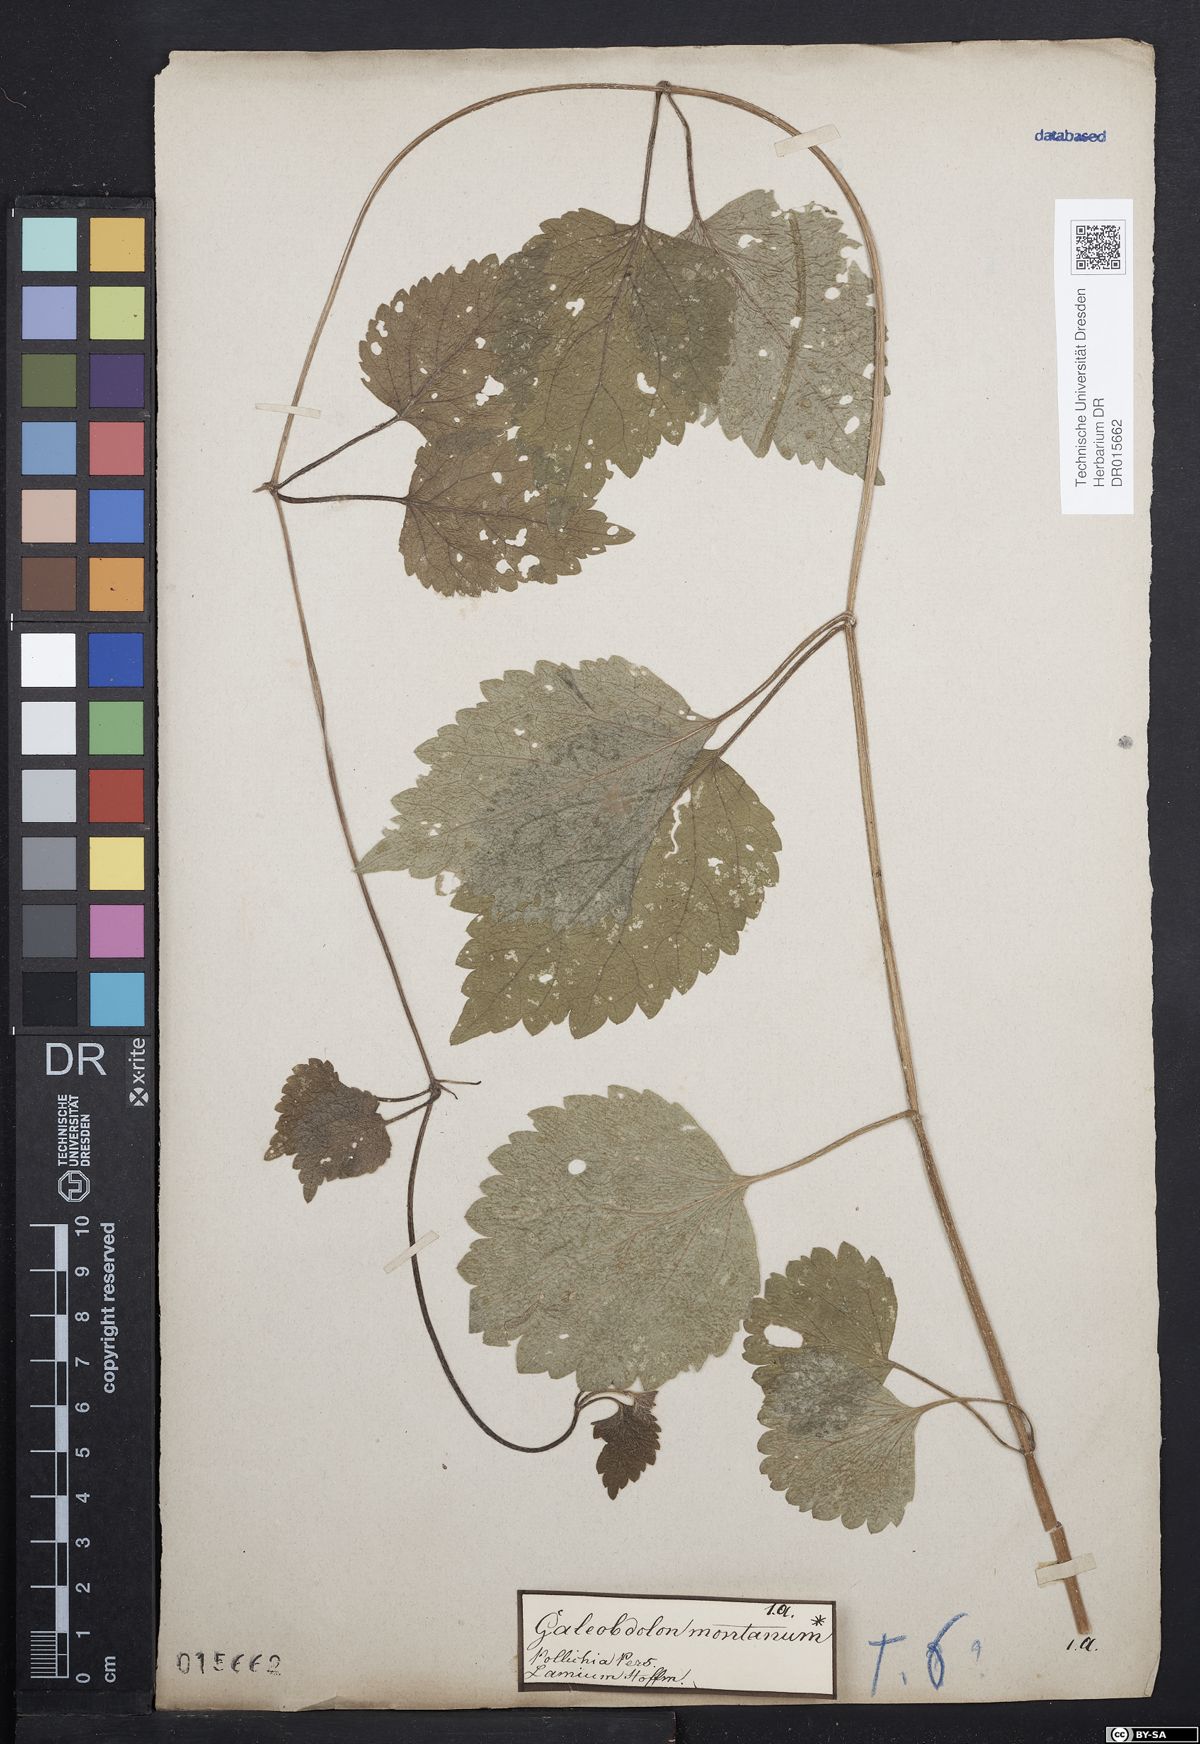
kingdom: Plantae
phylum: Tracheophyta
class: Magnoliopsida
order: Lamiales
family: Lamiaceae
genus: Lamium
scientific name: Lamium galeobdolon
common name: Yellow archangel
